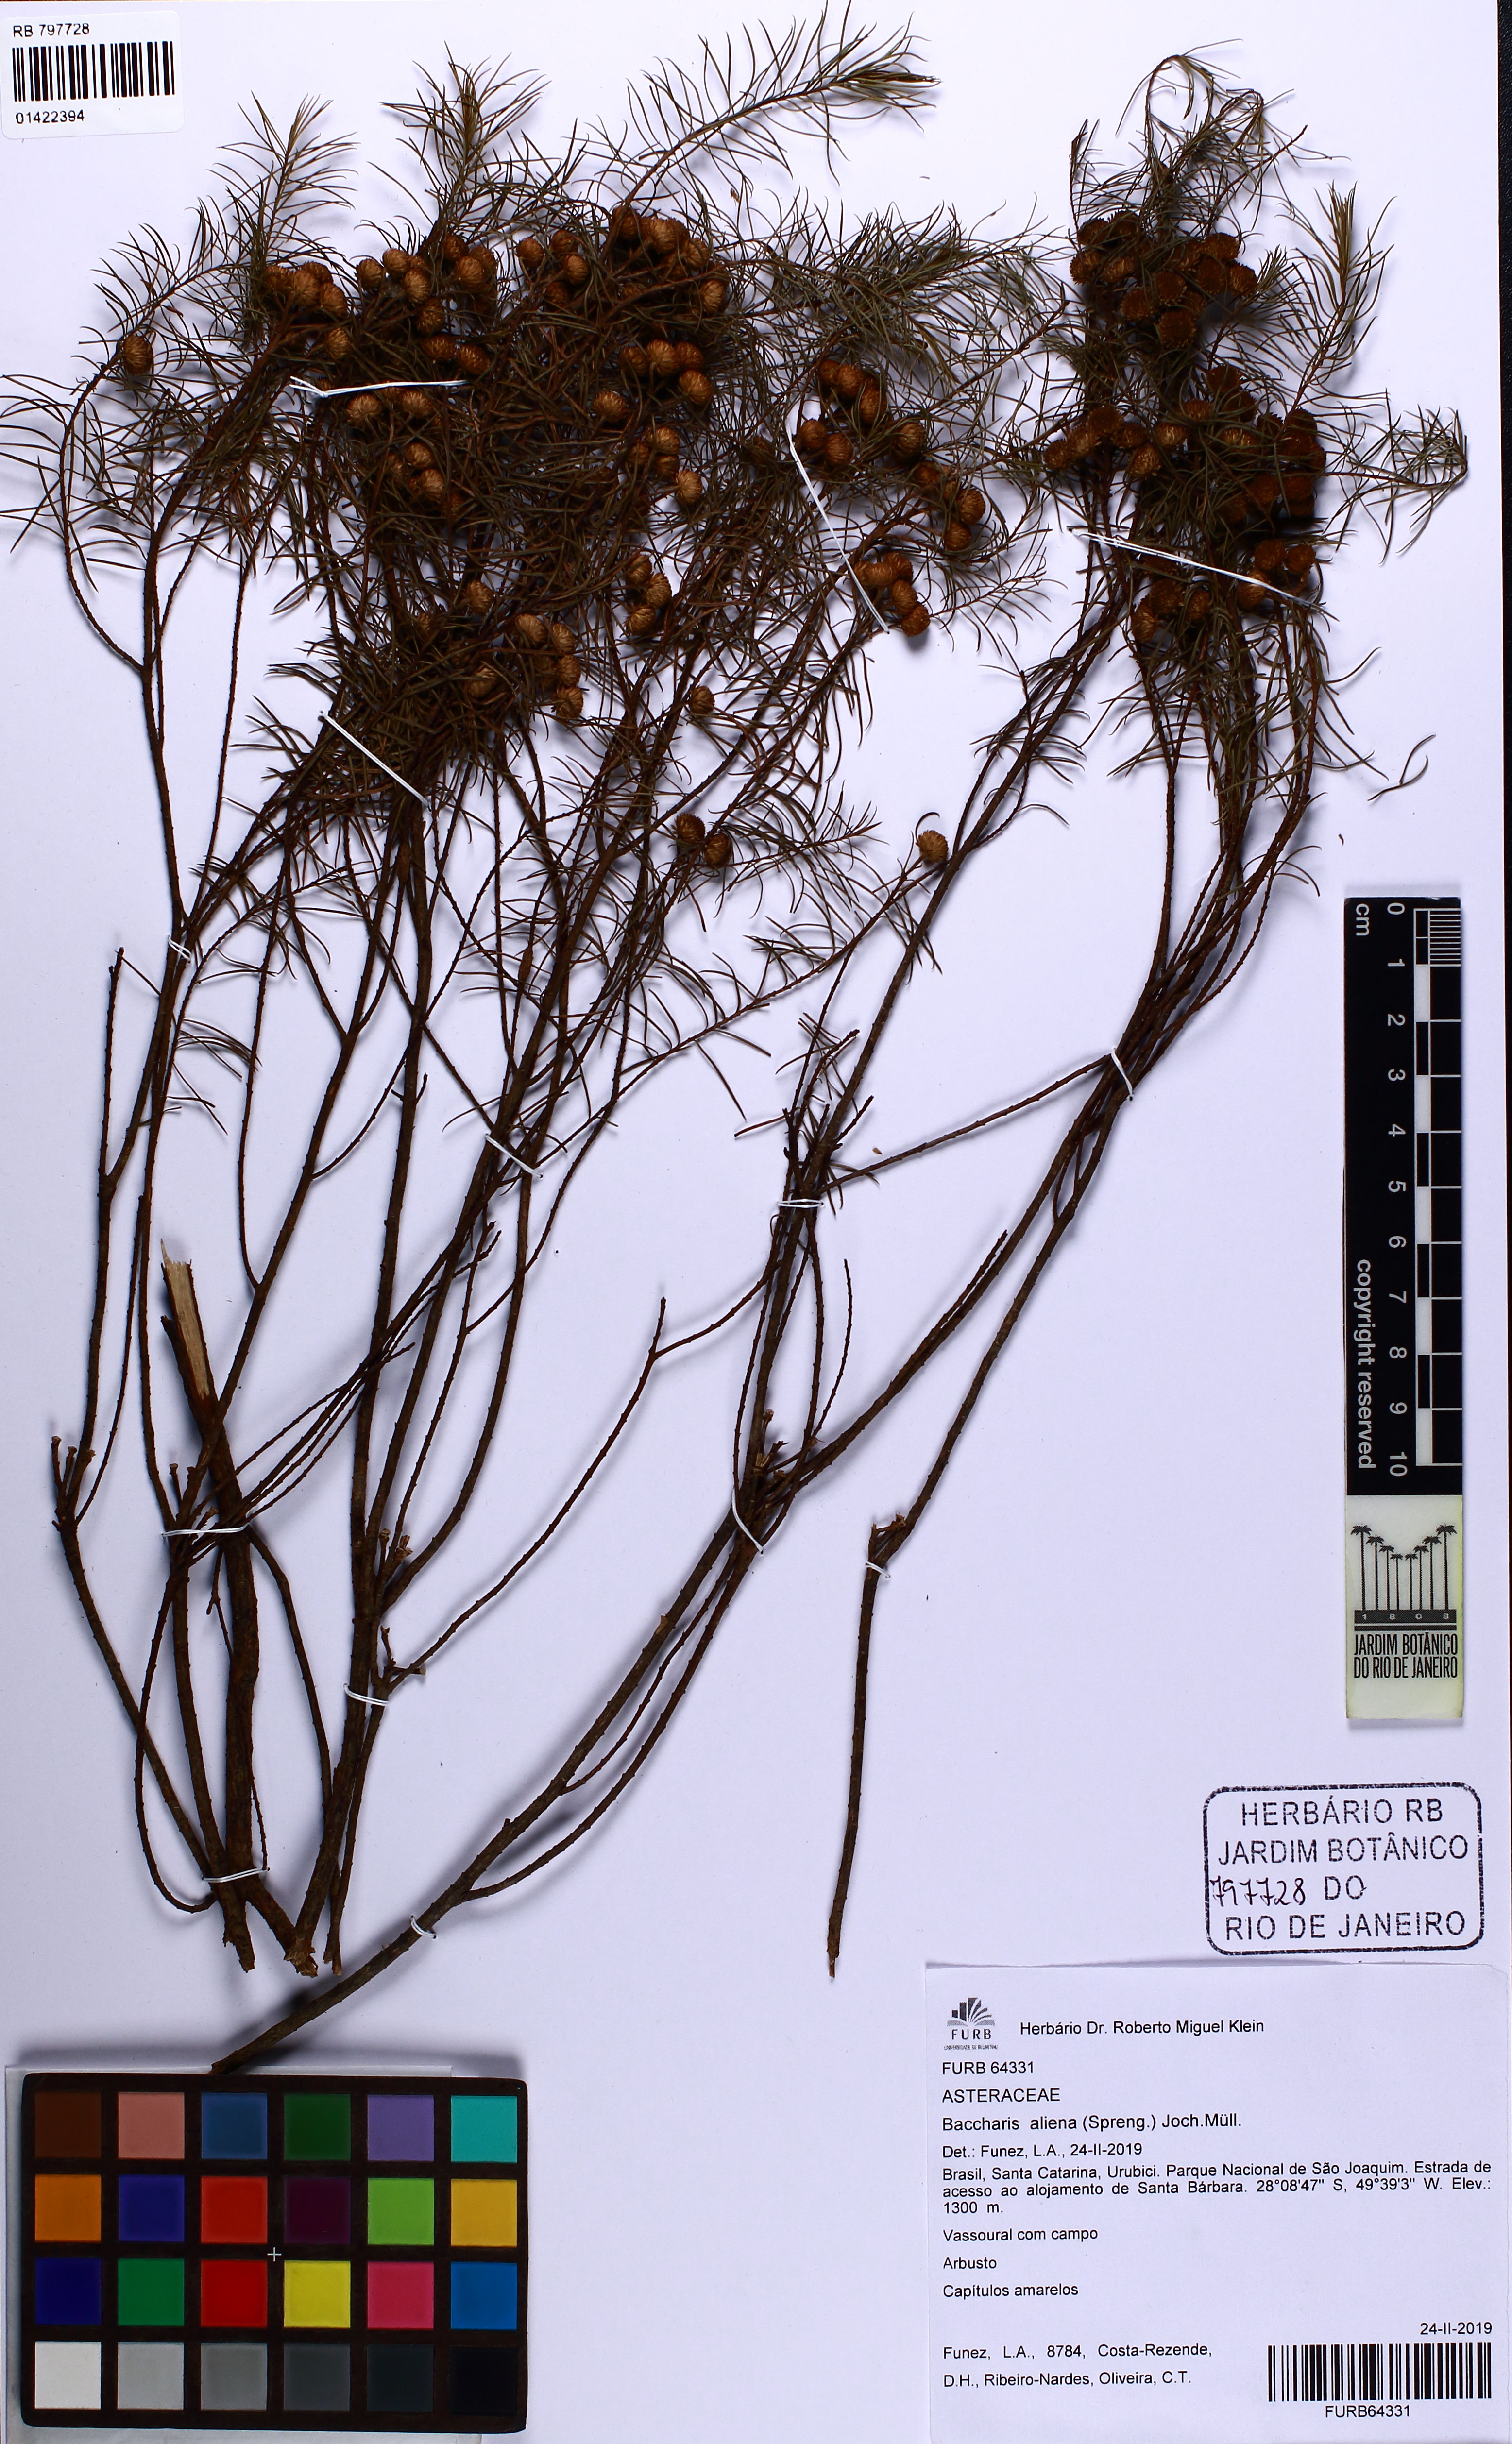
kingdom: Plantae
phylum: Tracheophyta
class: Magnoliopsida
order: Asterales
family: Asteraceae
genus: Baccharis
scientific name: Baccharis aliena
